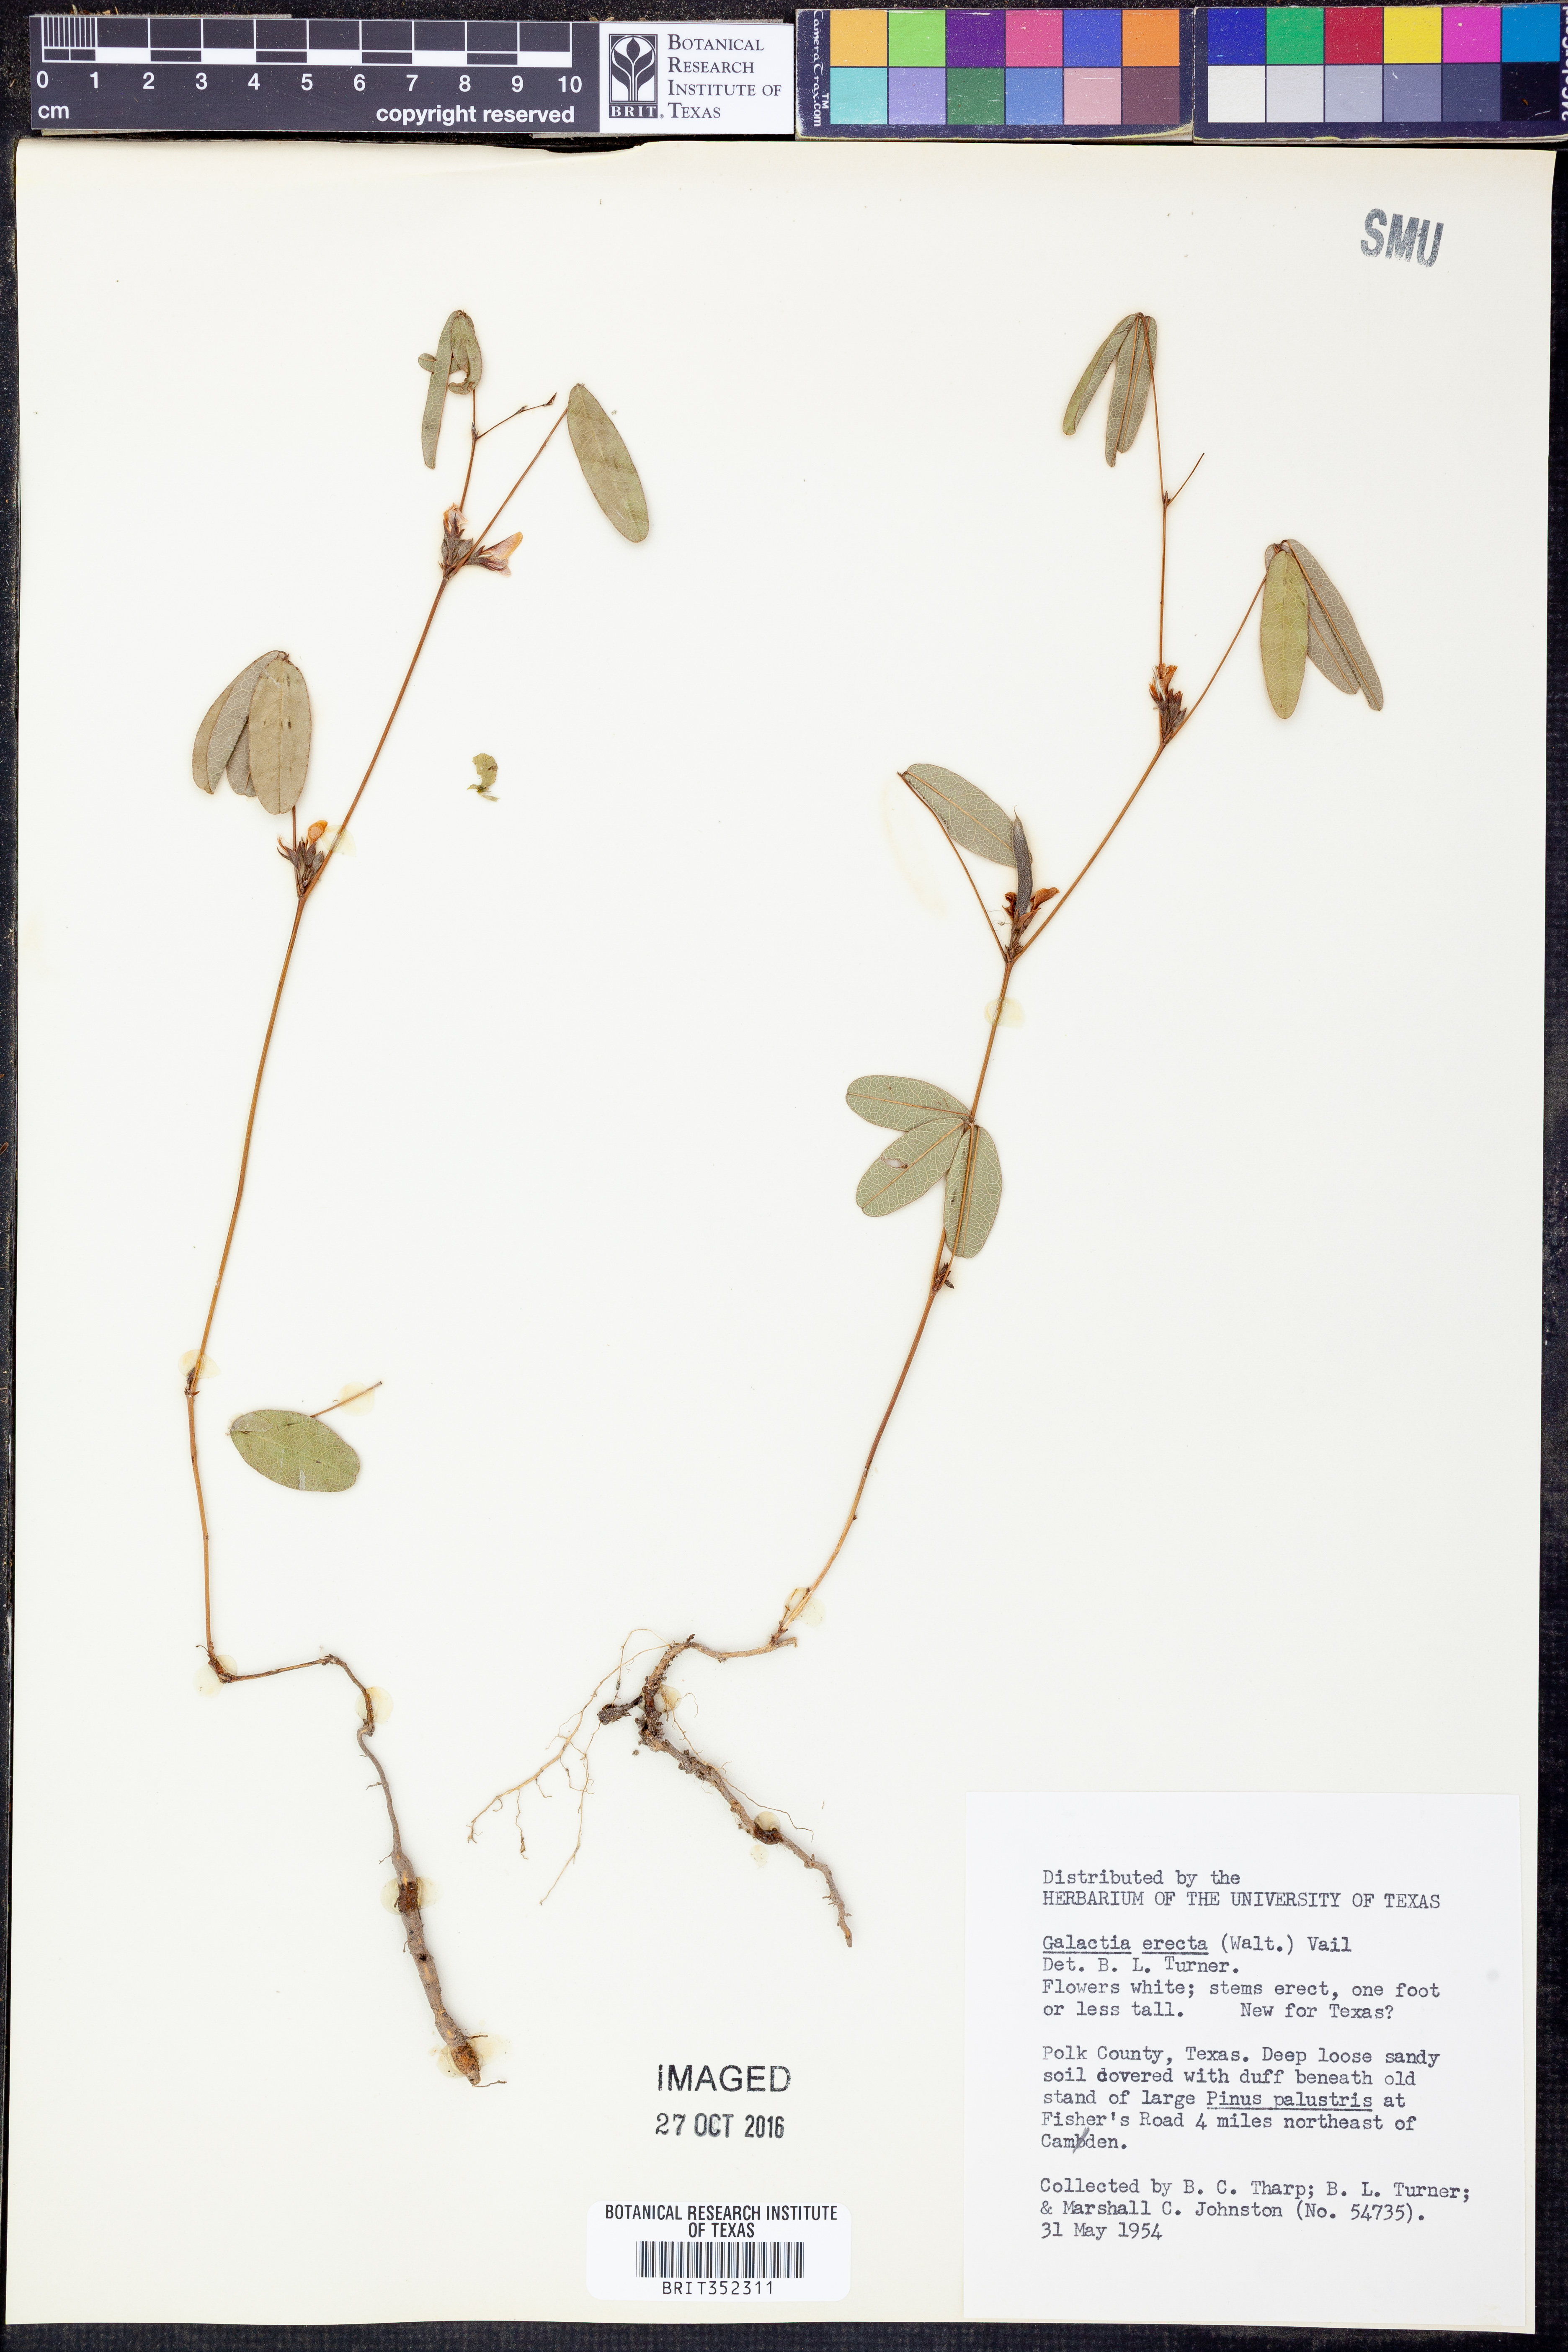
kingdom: Plantae
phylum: Tracheophyta
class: Magnoliopsida
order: Fabales
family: Fabaceae
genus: Galactia
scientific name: Galactia erecta
